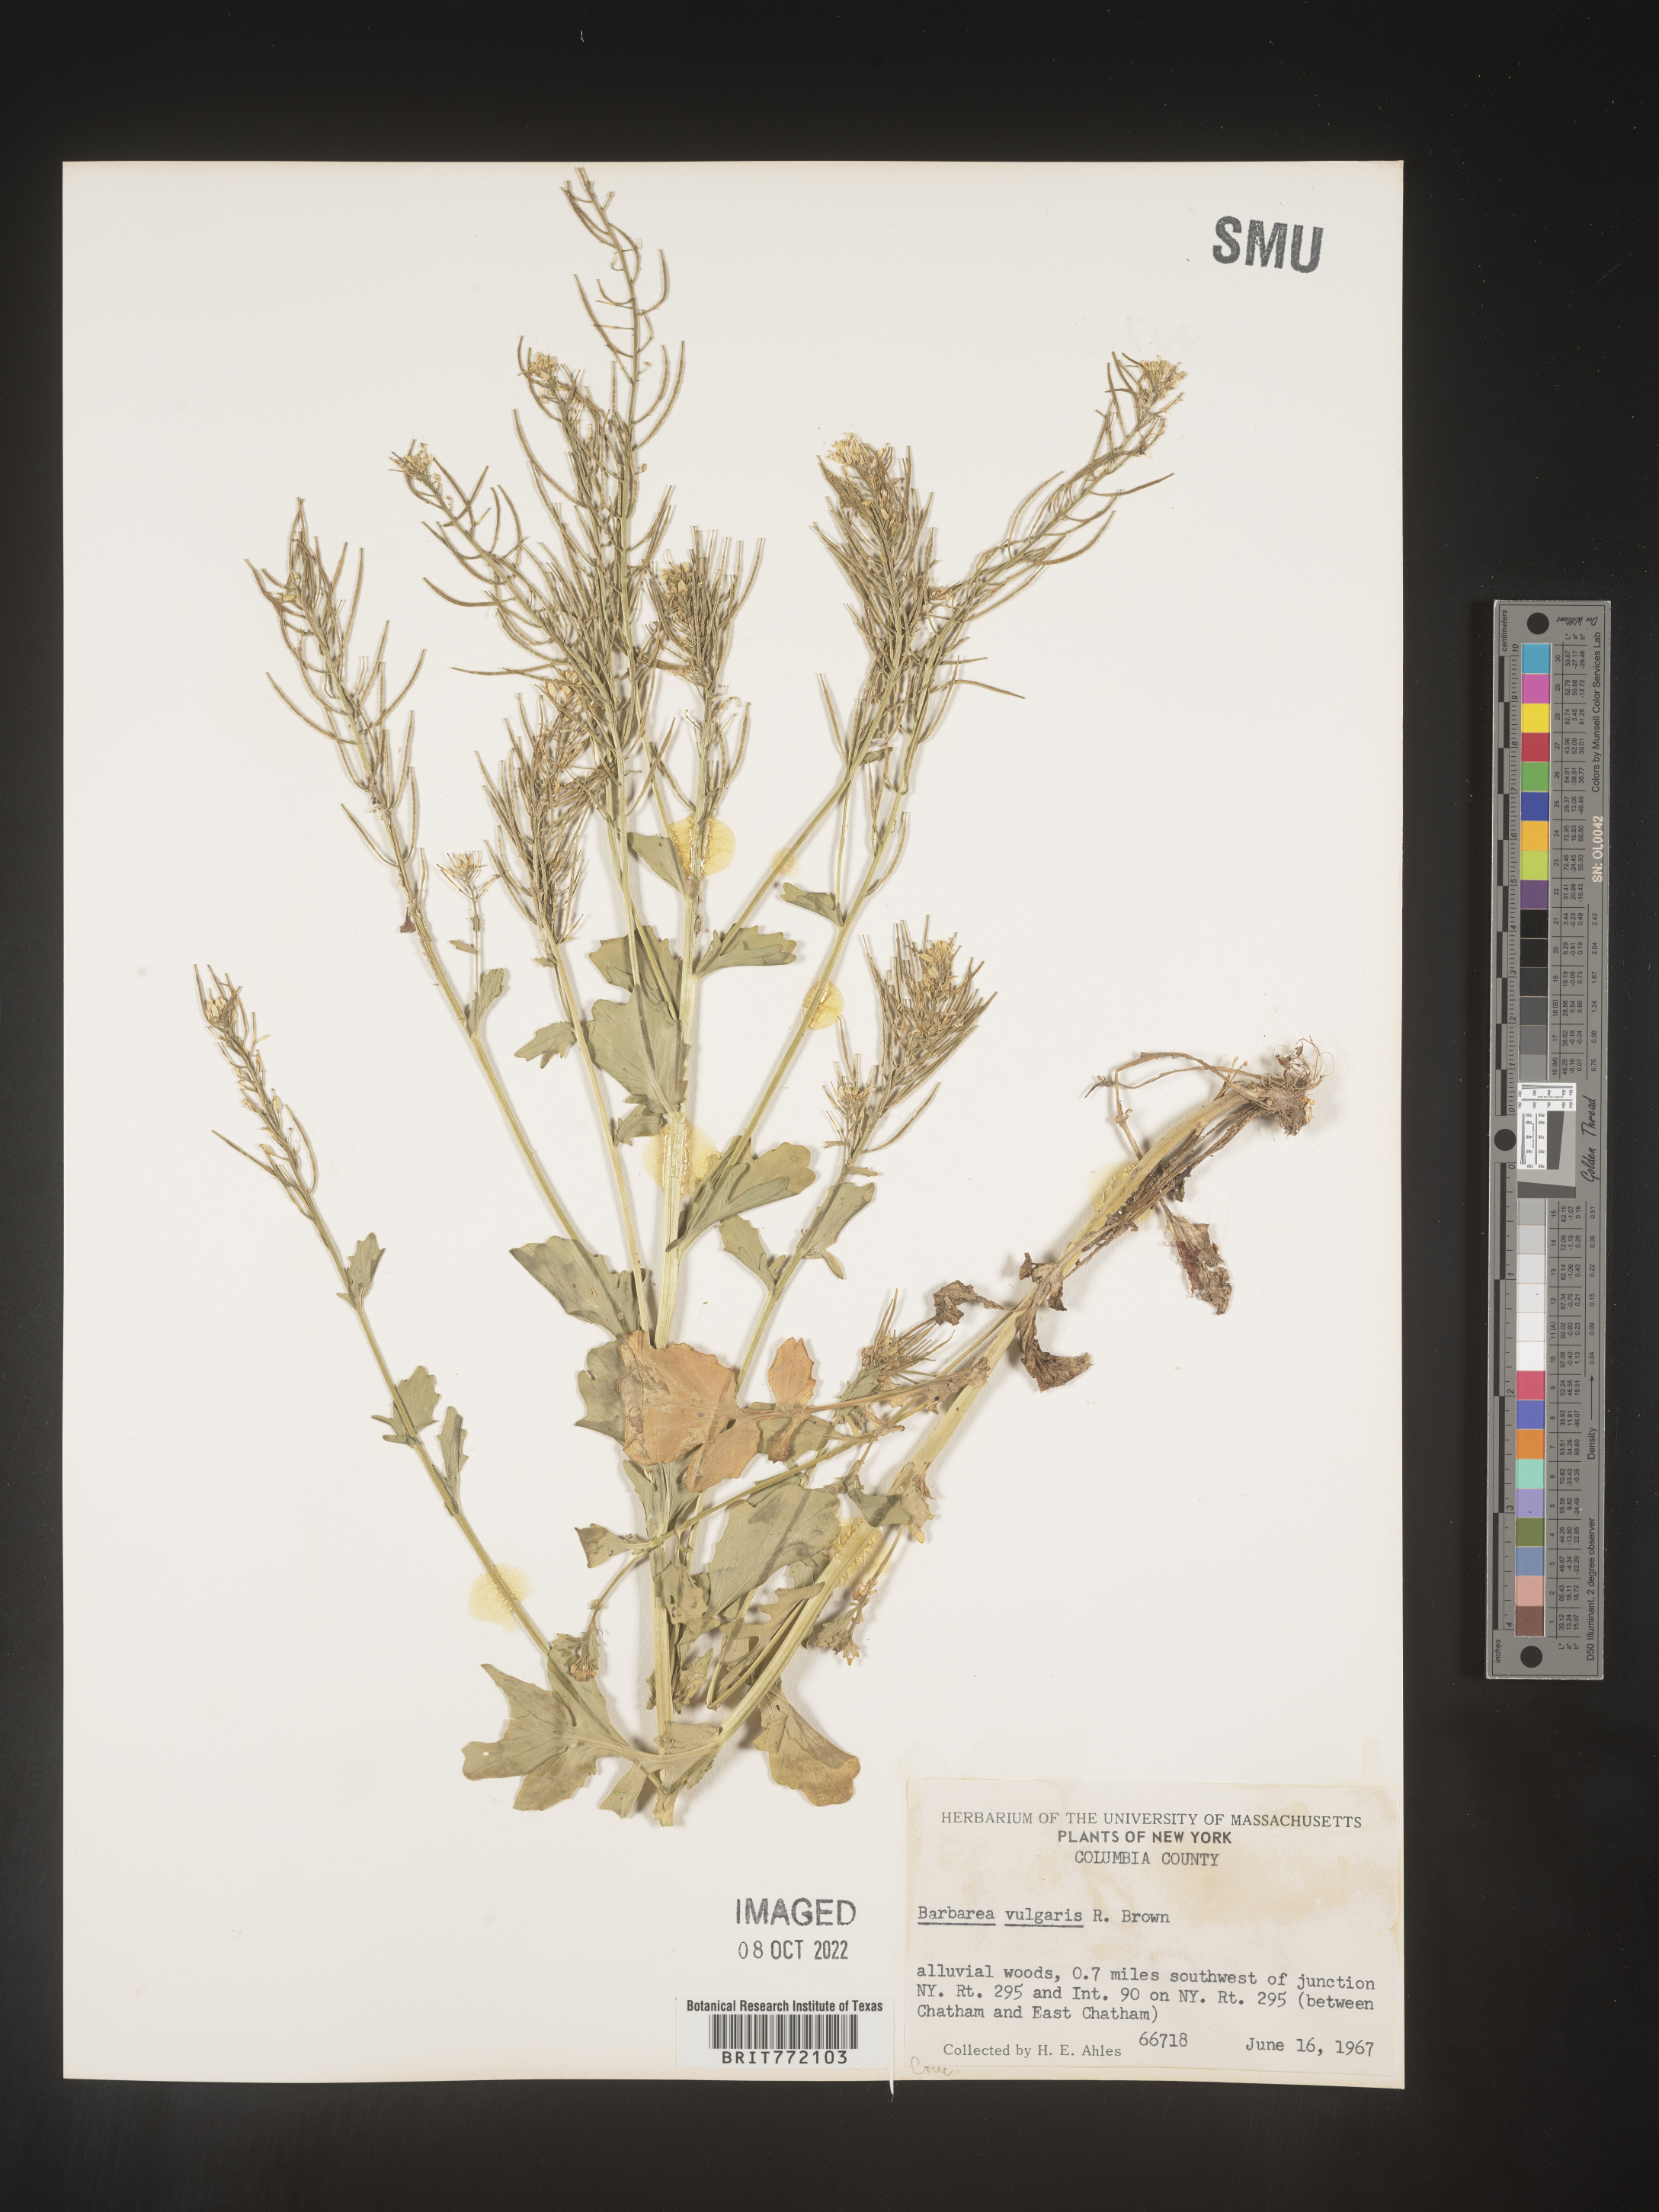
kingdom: Plantae
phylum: Tracheophyta
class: Magnoliopsida
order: Brassicales
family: Brassicaceae
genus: Barbarea
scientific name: Barbarea vulgaris
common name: Cressy-greens
